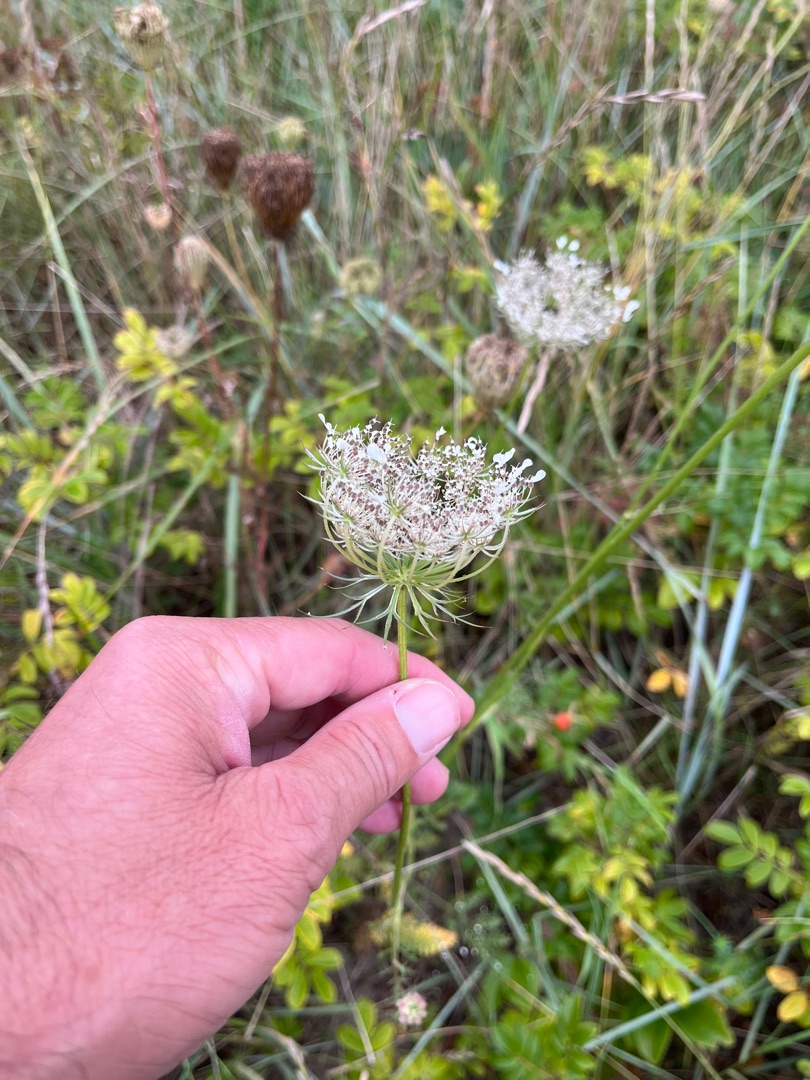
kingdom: Plantae
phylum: Tracheophyta
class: Magnoliopsida
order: Apiales
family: Apiaceae
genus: Daucus
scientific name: Daucus carota
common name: Vild gulerod
